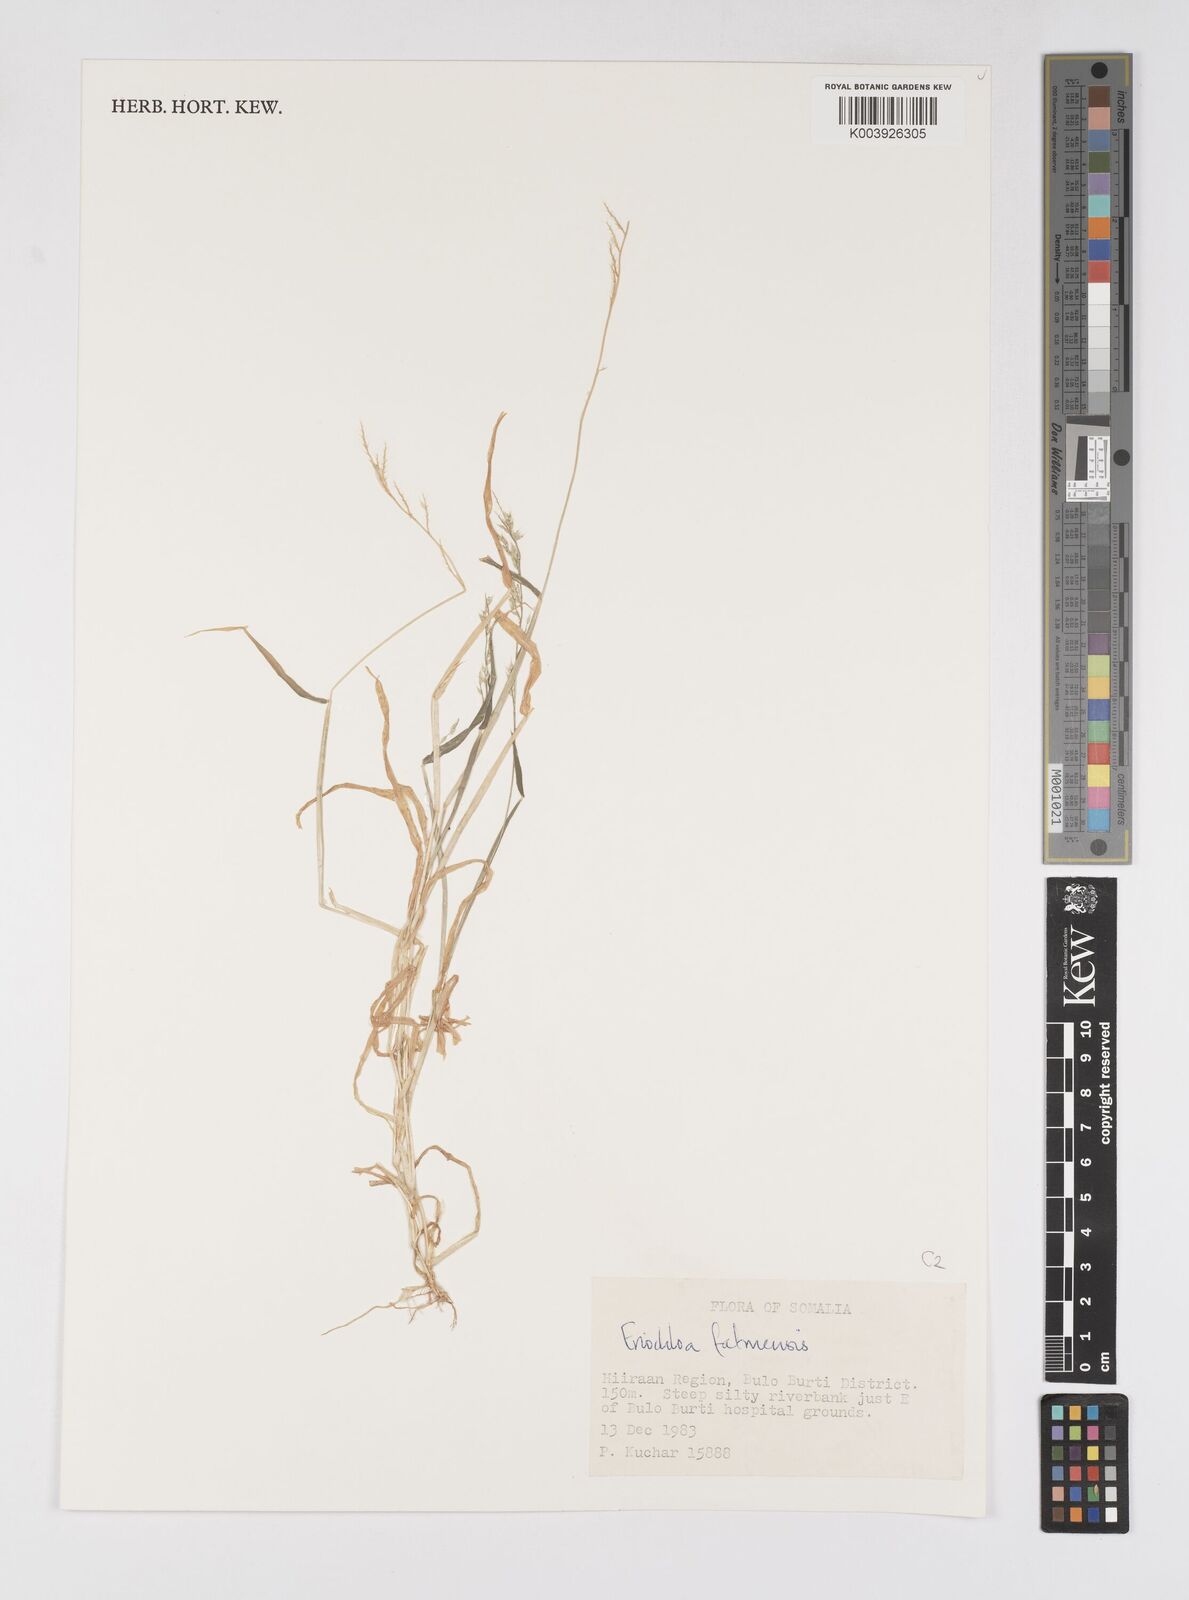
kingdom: Plantae
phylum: Tracheophyta
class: Liliopsida
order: Poales
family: Poaceae
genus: Eriochloa
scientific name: Eriochloa barbatus
